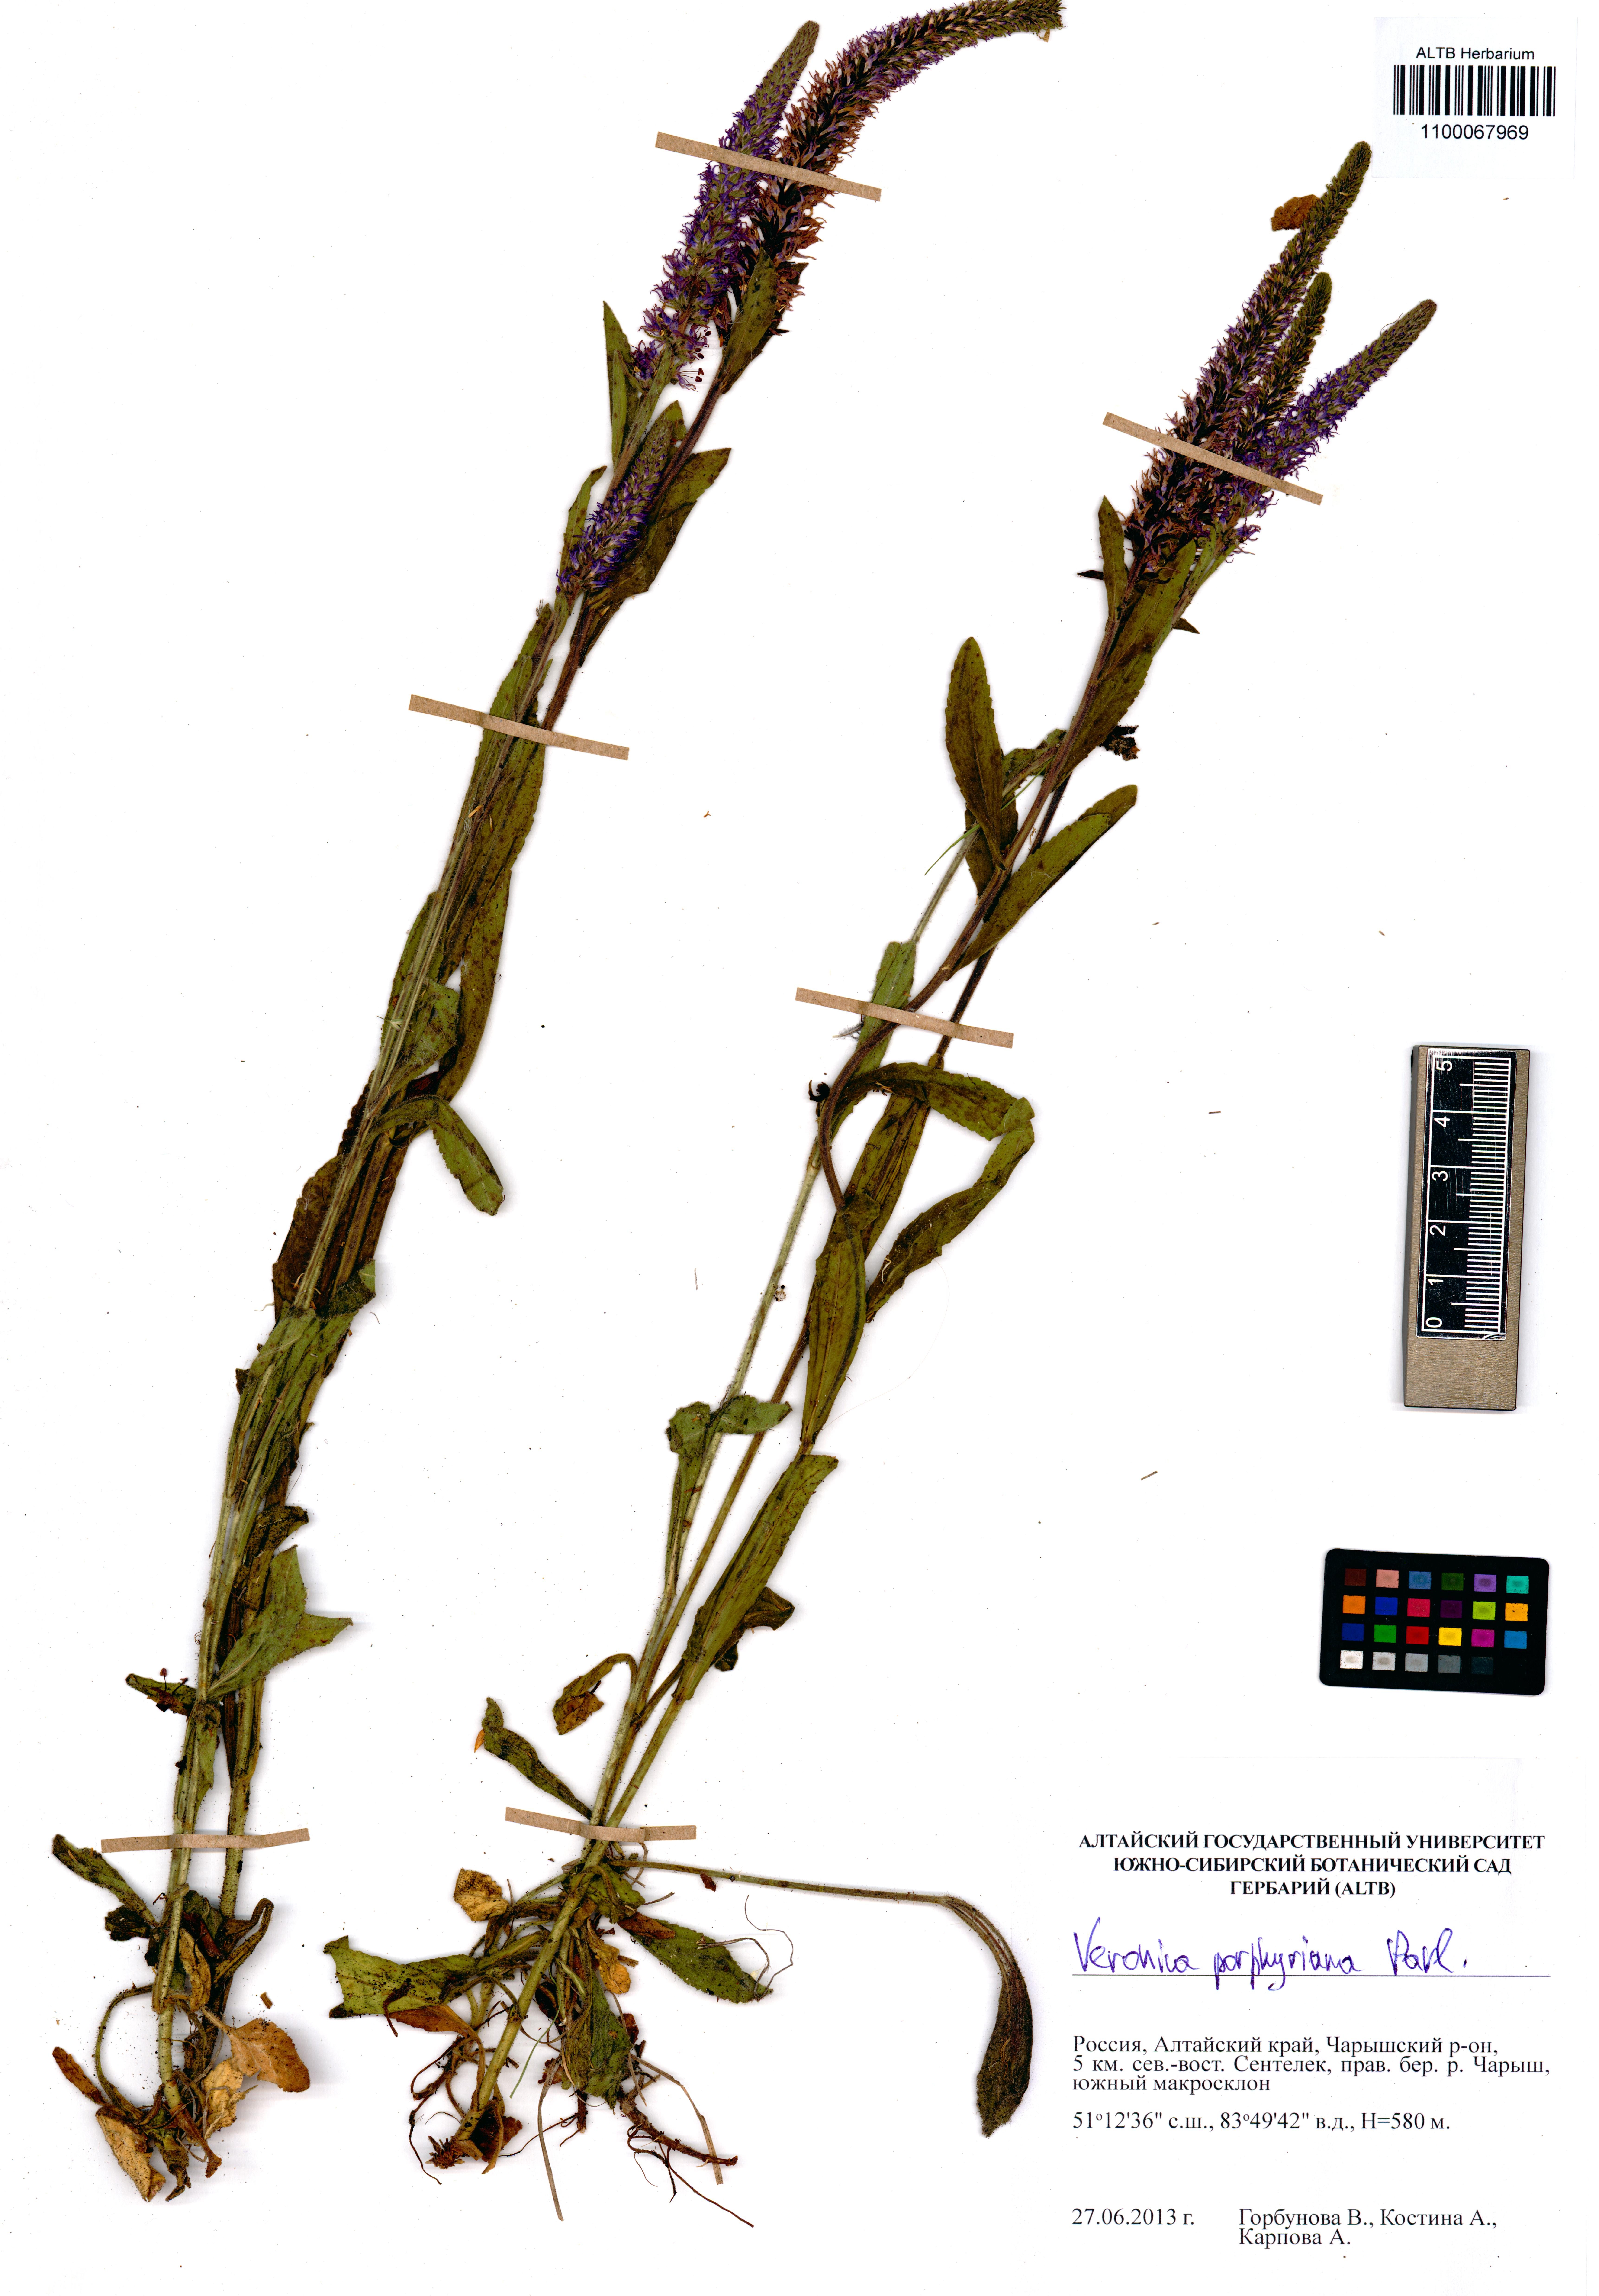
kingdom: Plantae
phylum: Tracheophyta
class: Magnoliopsida
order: Lamiales
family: Plantaginaceae
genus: Veronica
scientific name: Veronica porphyriana
